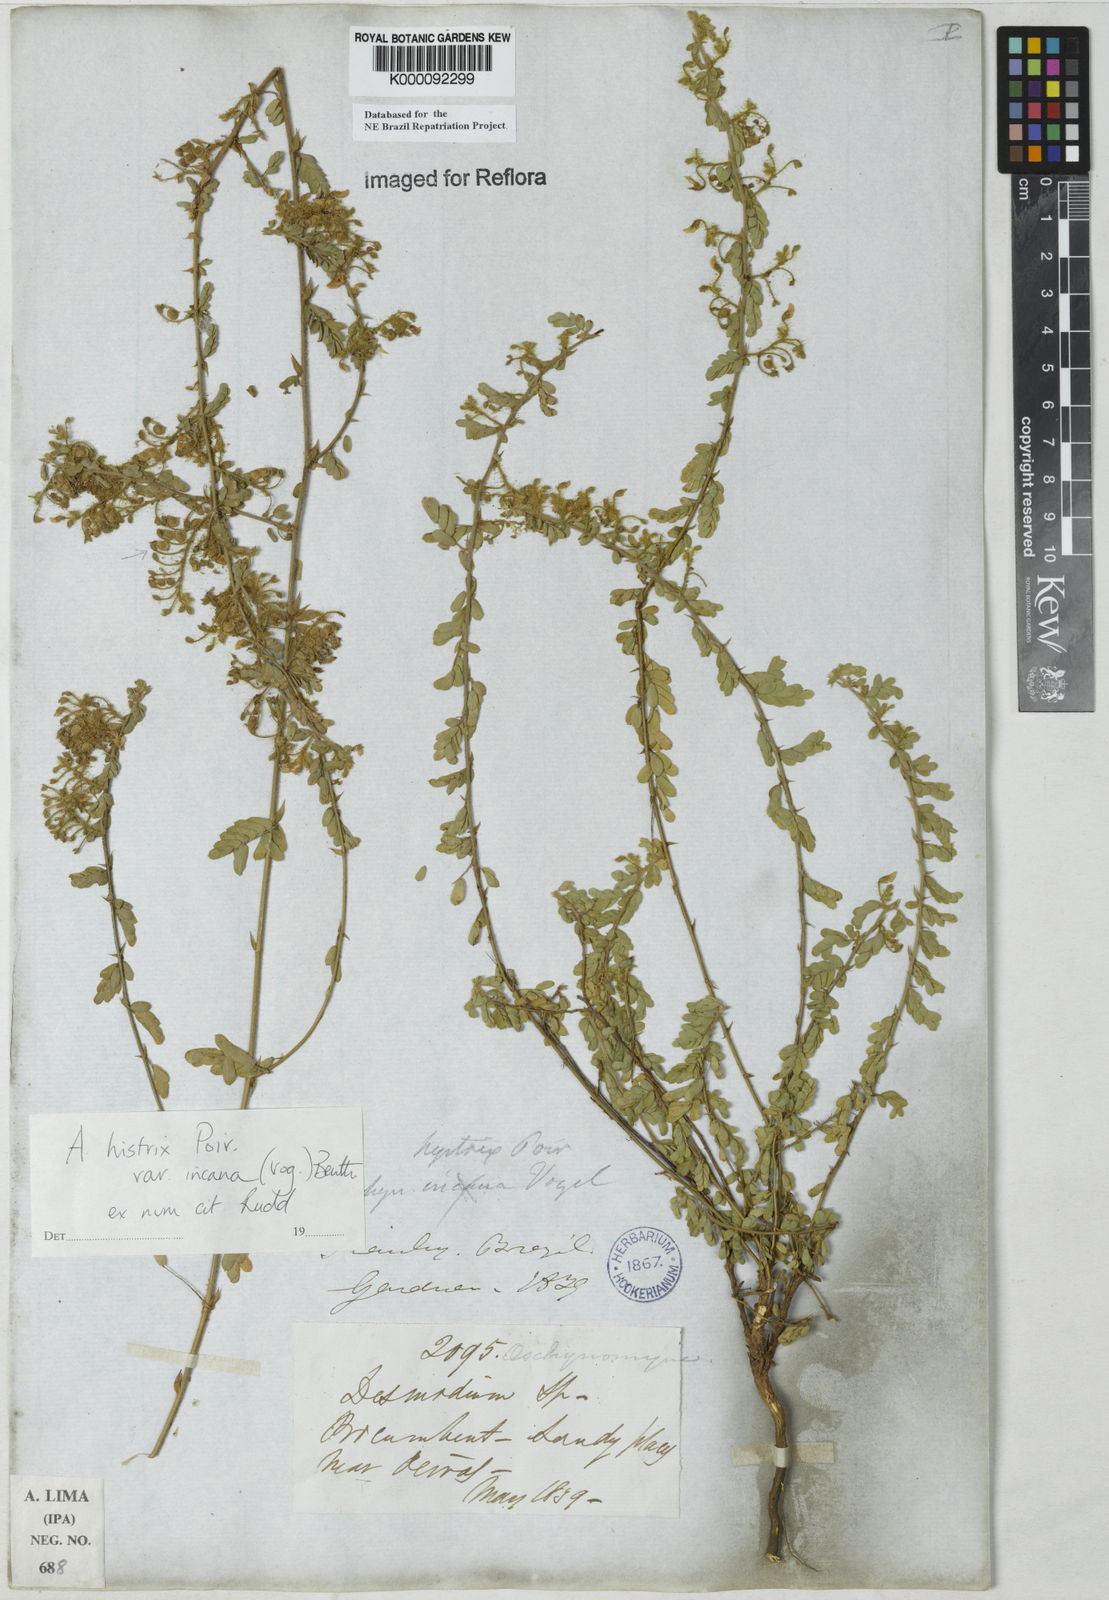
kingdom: Plantae
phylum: Tracheophyta
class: Magnoliopsida
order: Fabales
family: Fabaceae
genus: Ctenodon
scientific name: Ctenodon histrix
